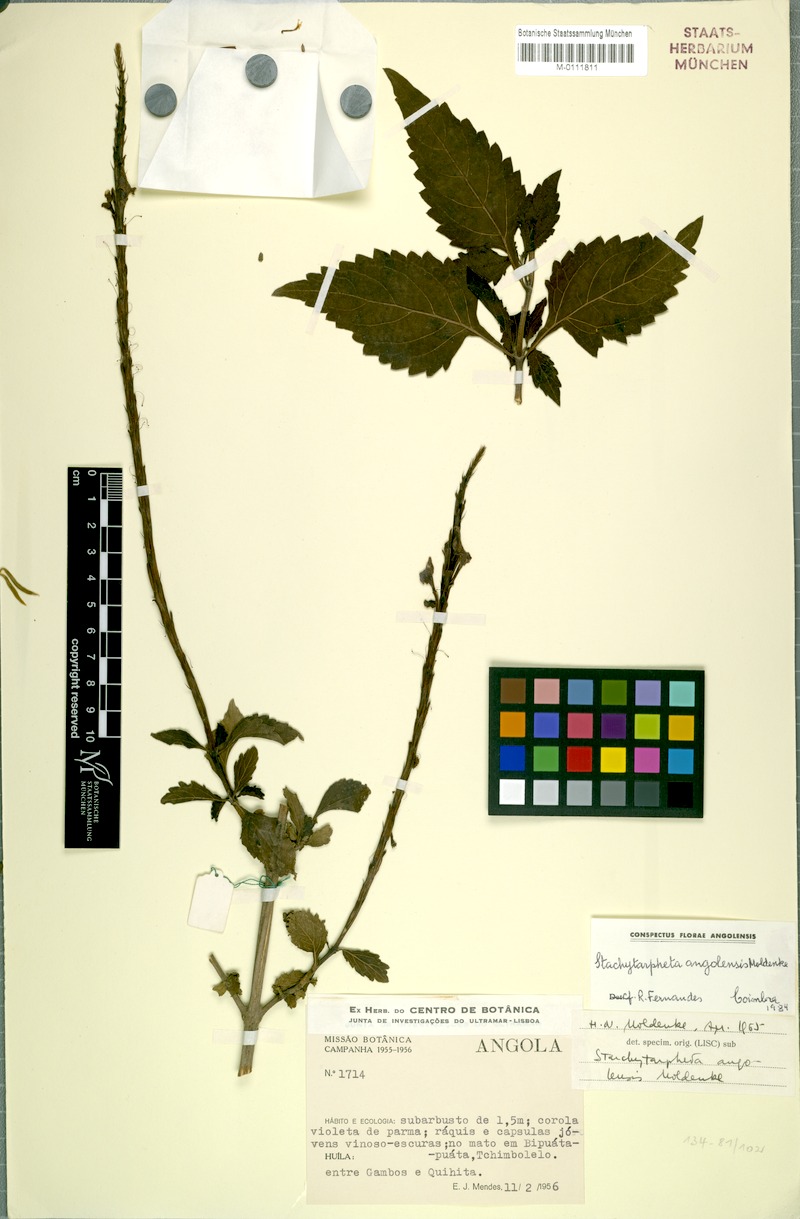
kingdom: Plantae
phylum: Tracheophyta
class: Magnoliopsida
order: Lamiales
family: Verbenaceae
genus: Stachytarpheta
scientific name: Stachytarpheta angolensis
